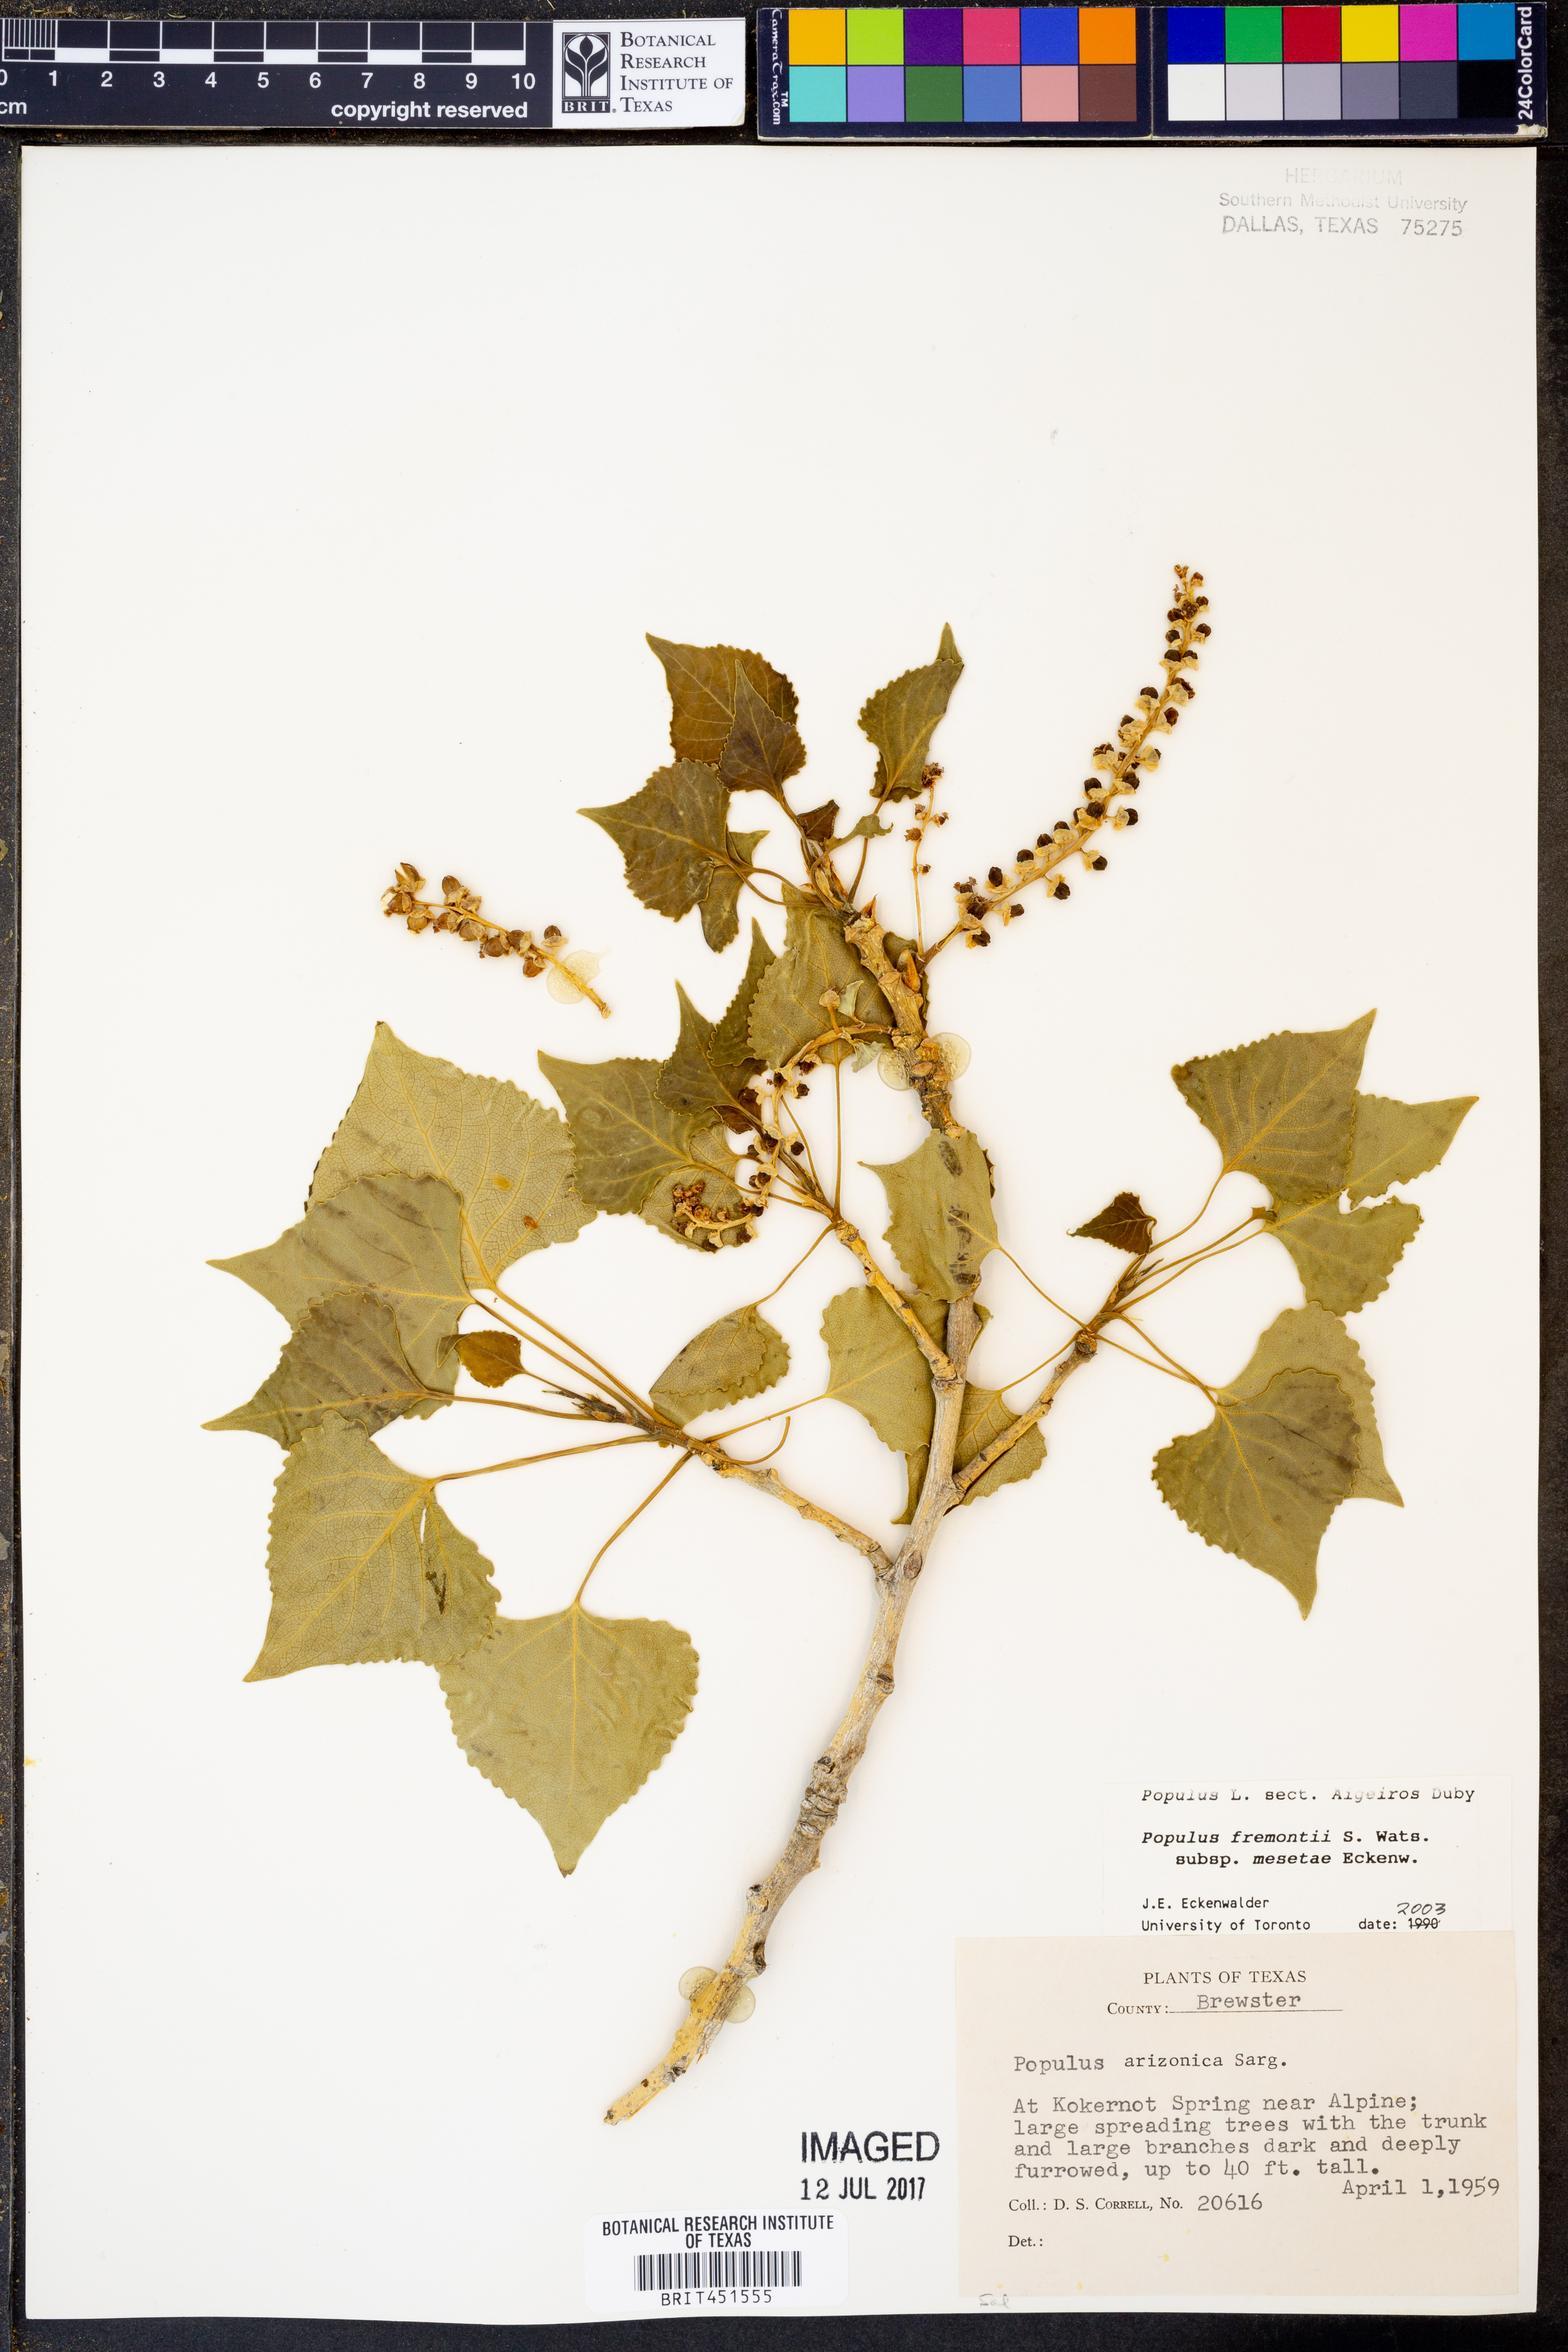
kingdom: Plantae
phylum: Tracheophyta
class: Magnoliopsida
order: Malpighiales
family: Salicaceae
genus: Populus
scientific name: Populus fremontii
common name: Fremont's cottonwood
